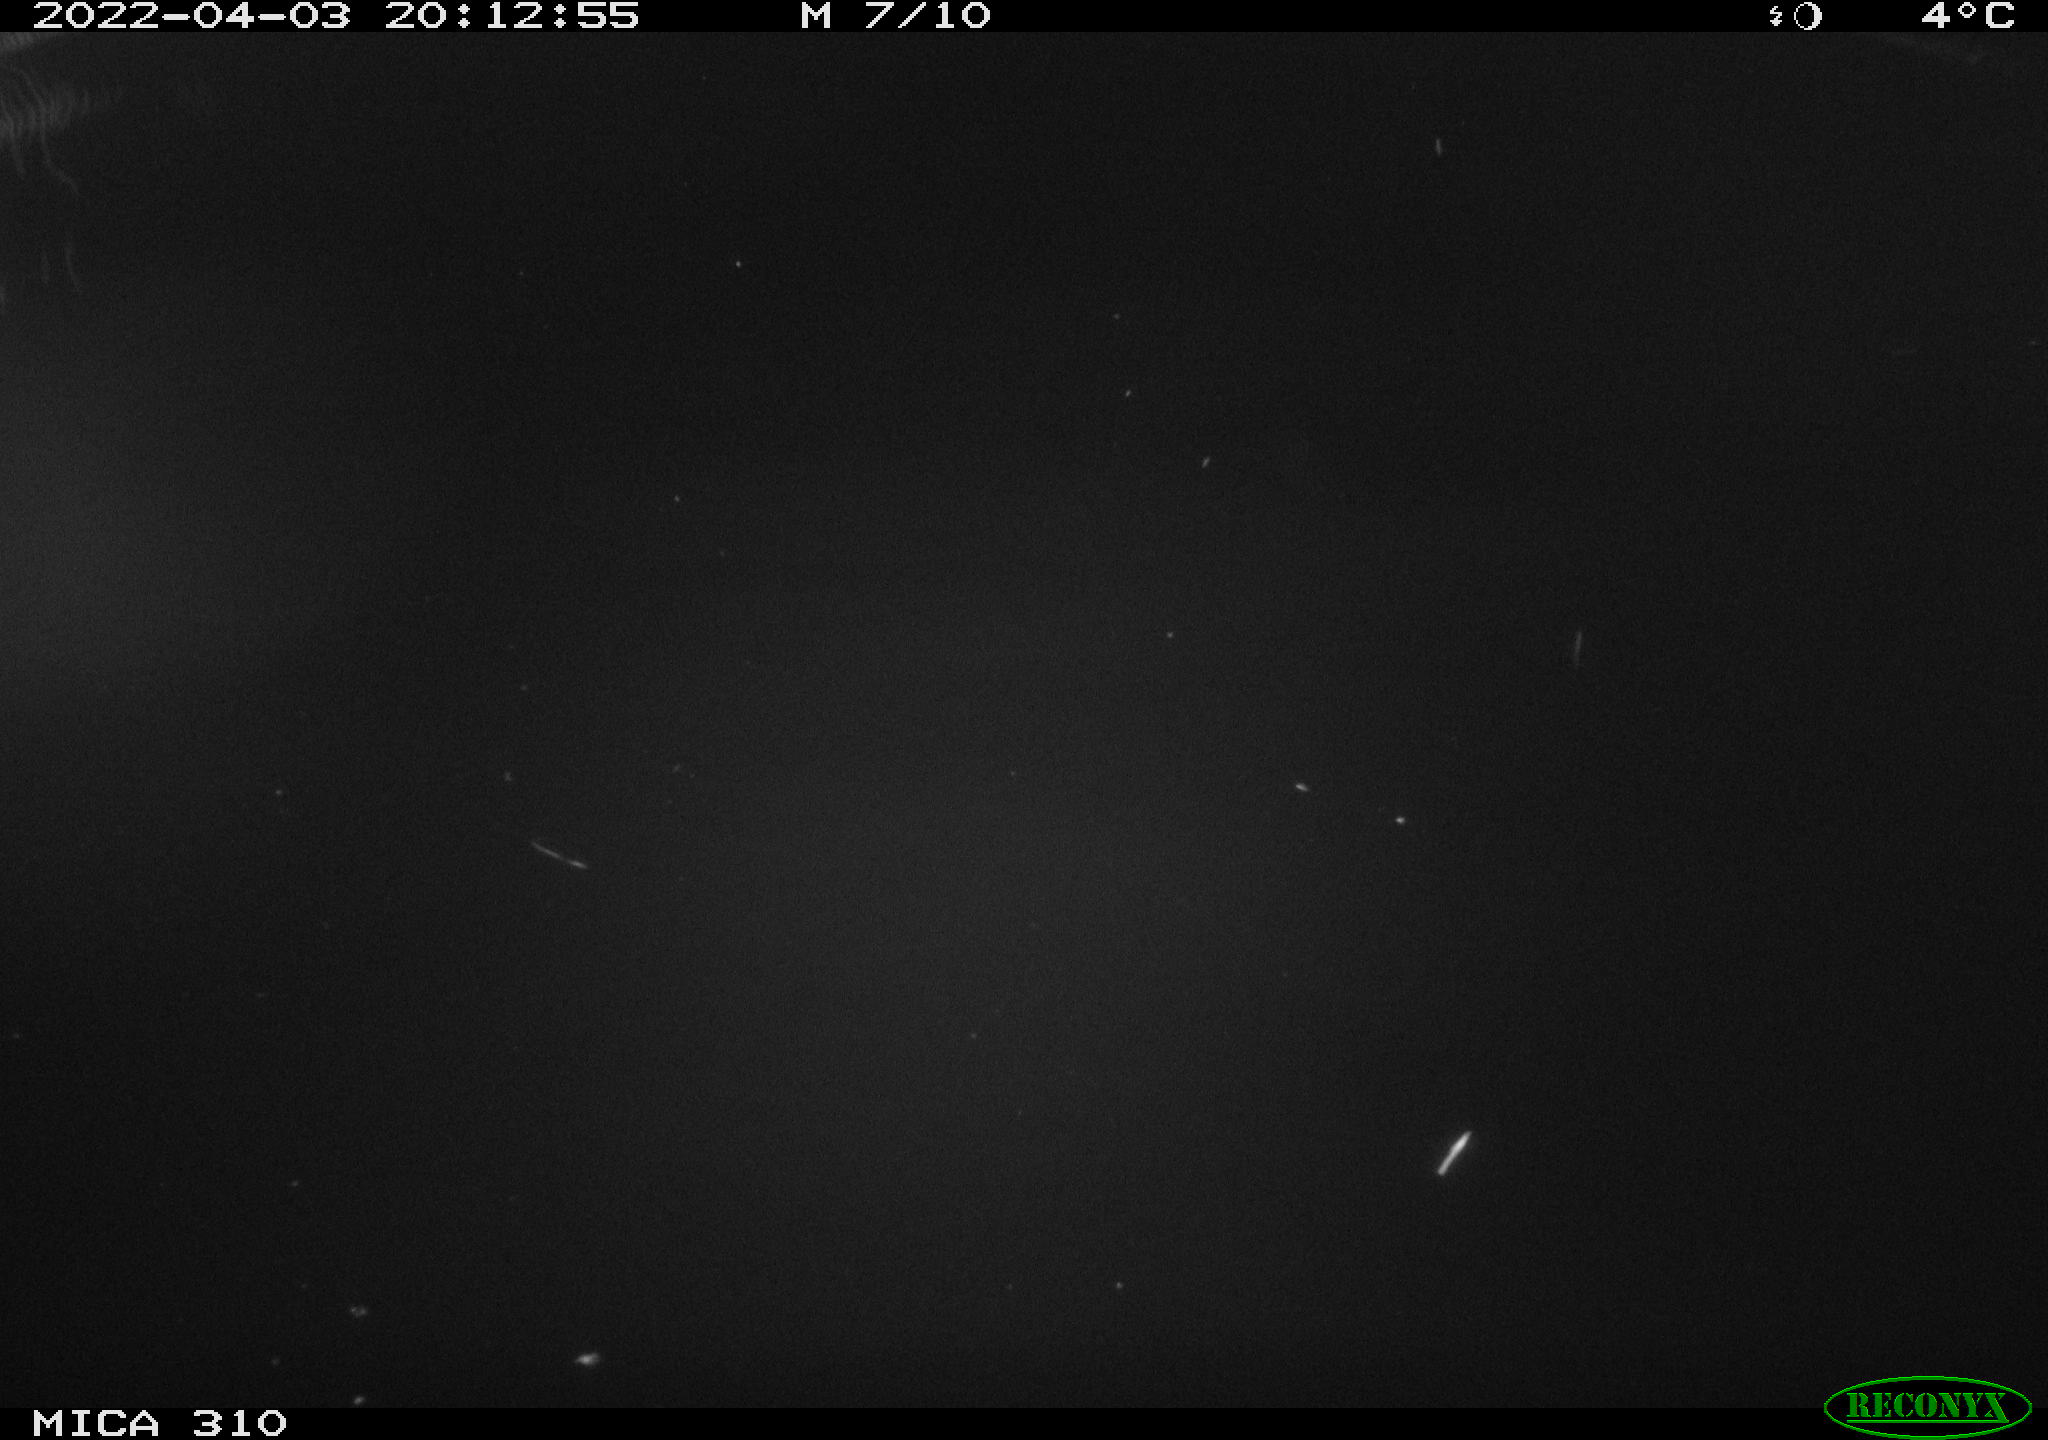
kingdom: Animalia
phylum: Chordata
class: Aves
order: Anseriformes
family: Anatidae
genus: Anas
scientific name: Anas platyrhynchos
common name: Mallard
